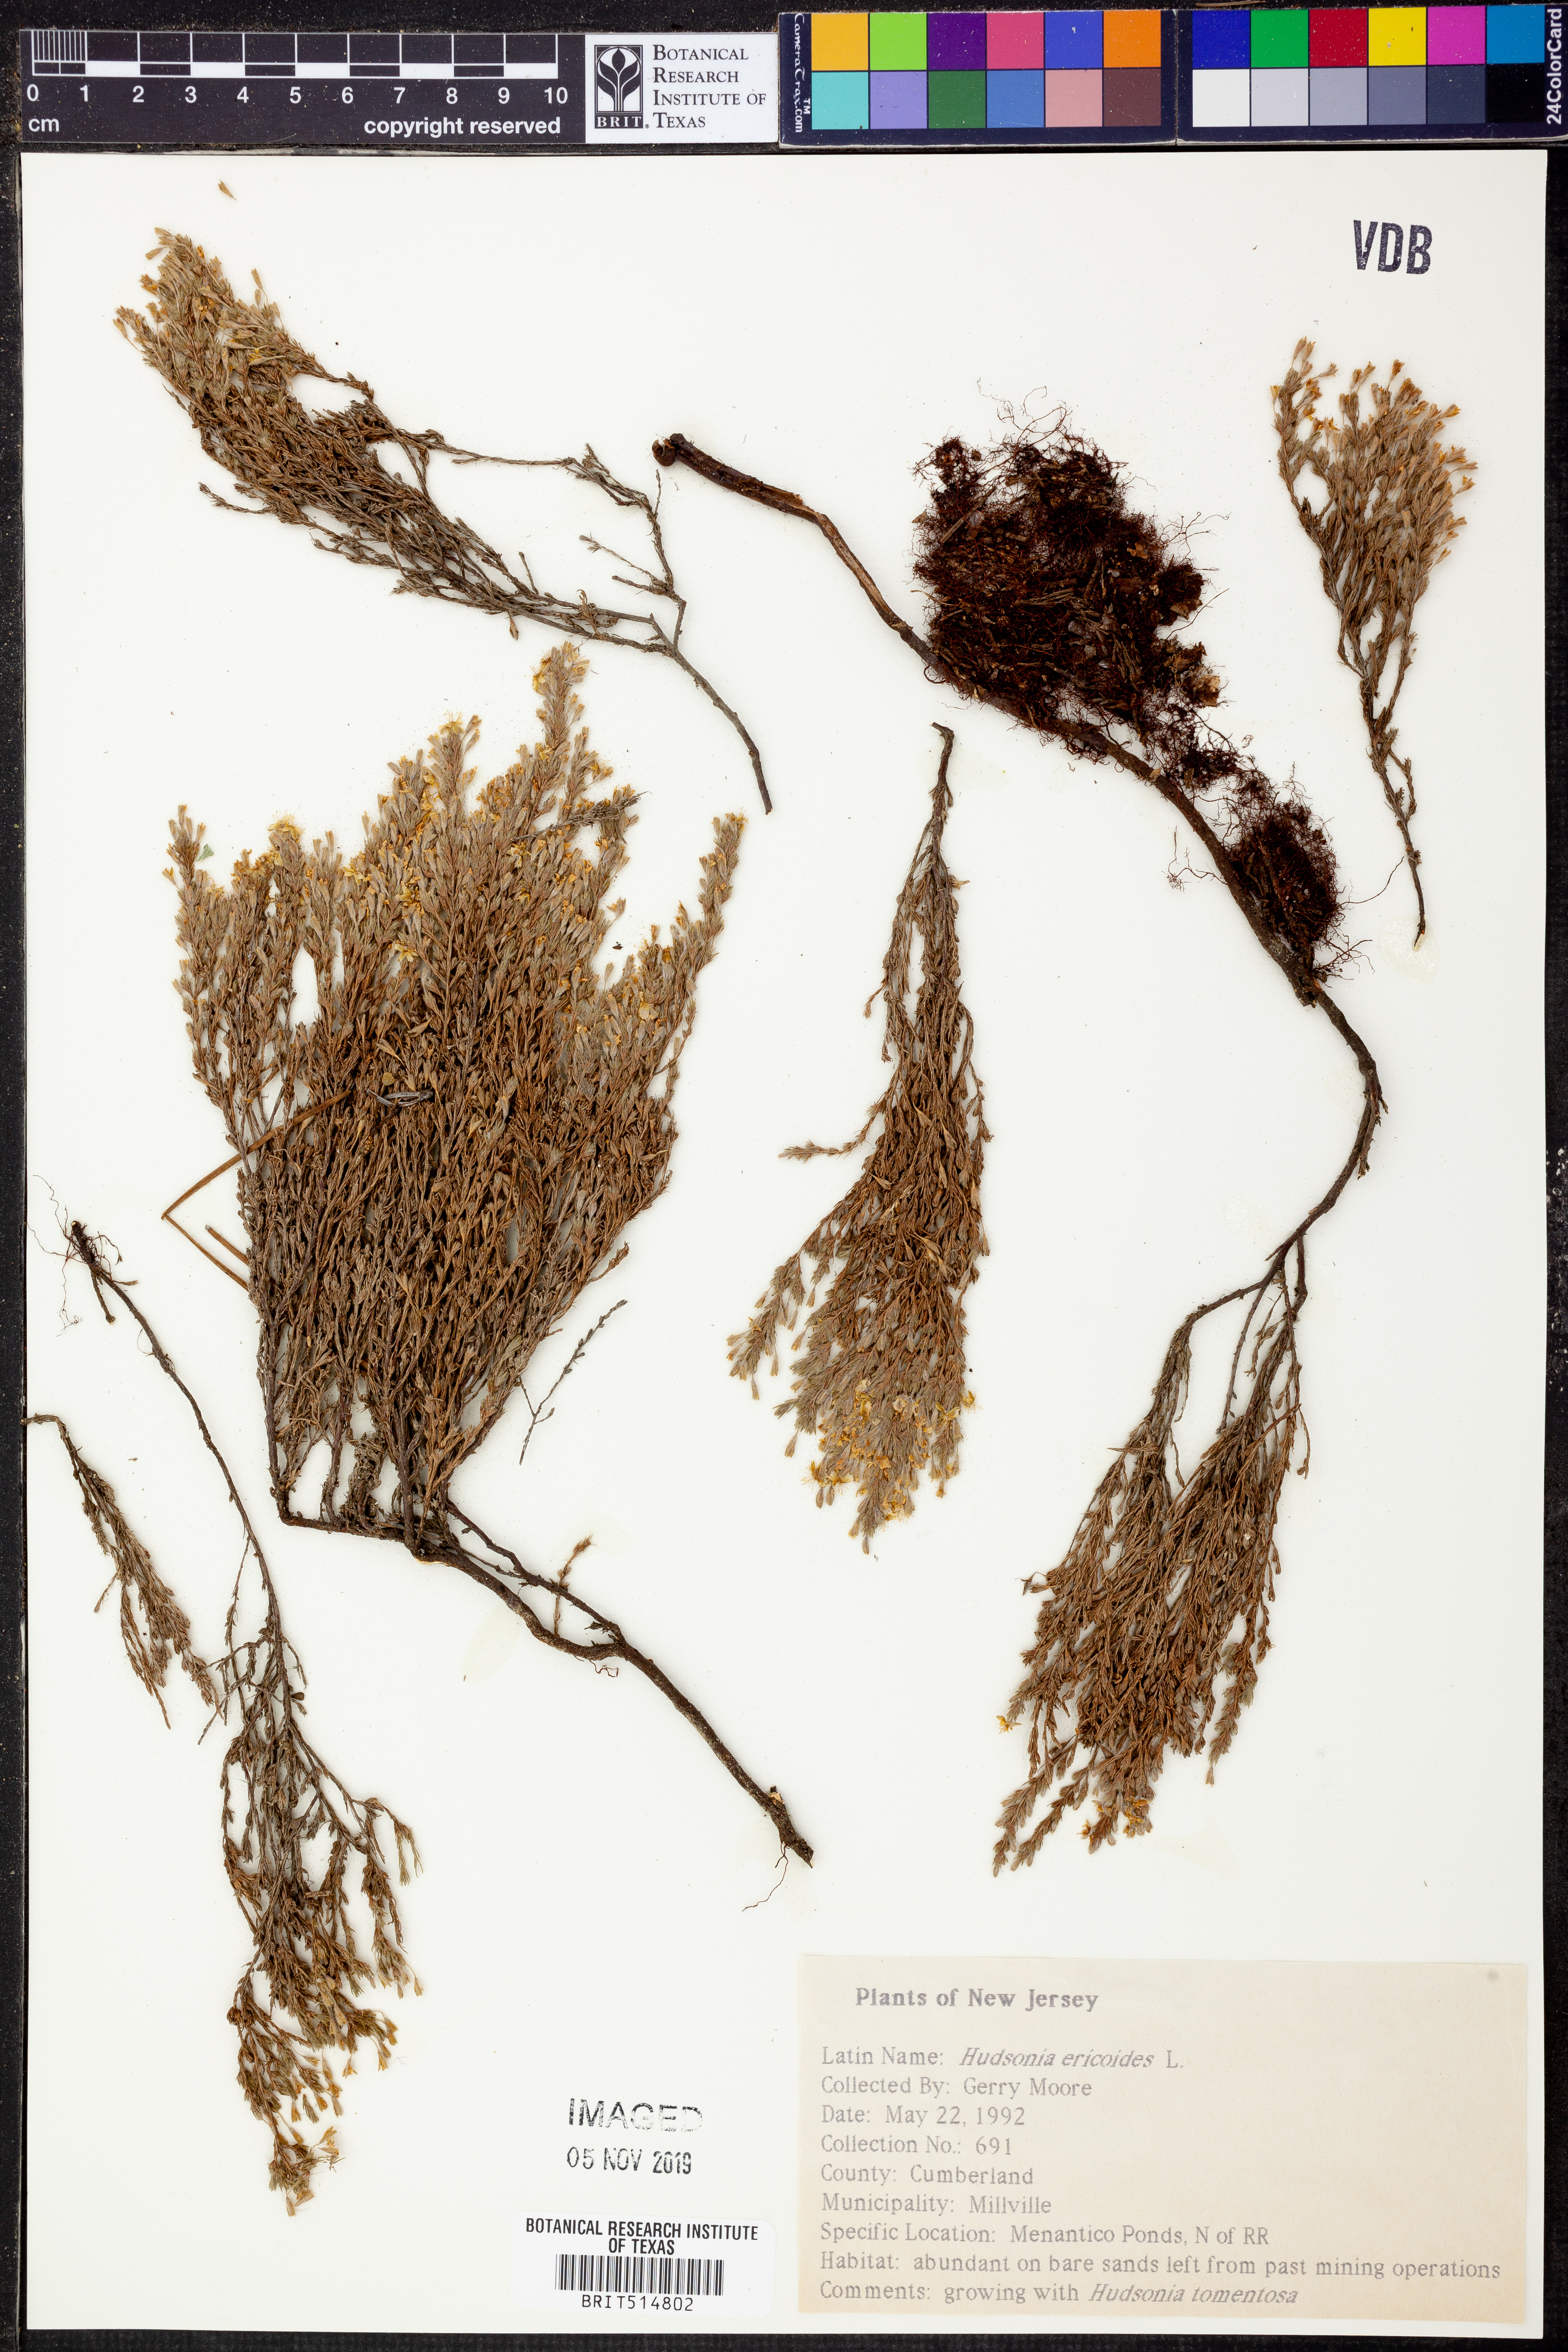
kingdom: Plantae
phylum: Tracheophyta
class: Magnoliopsida
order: Malvales
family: Cistaceae
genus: Hudsonia
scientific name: Hudsonia ericoides
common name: Golden-heather
